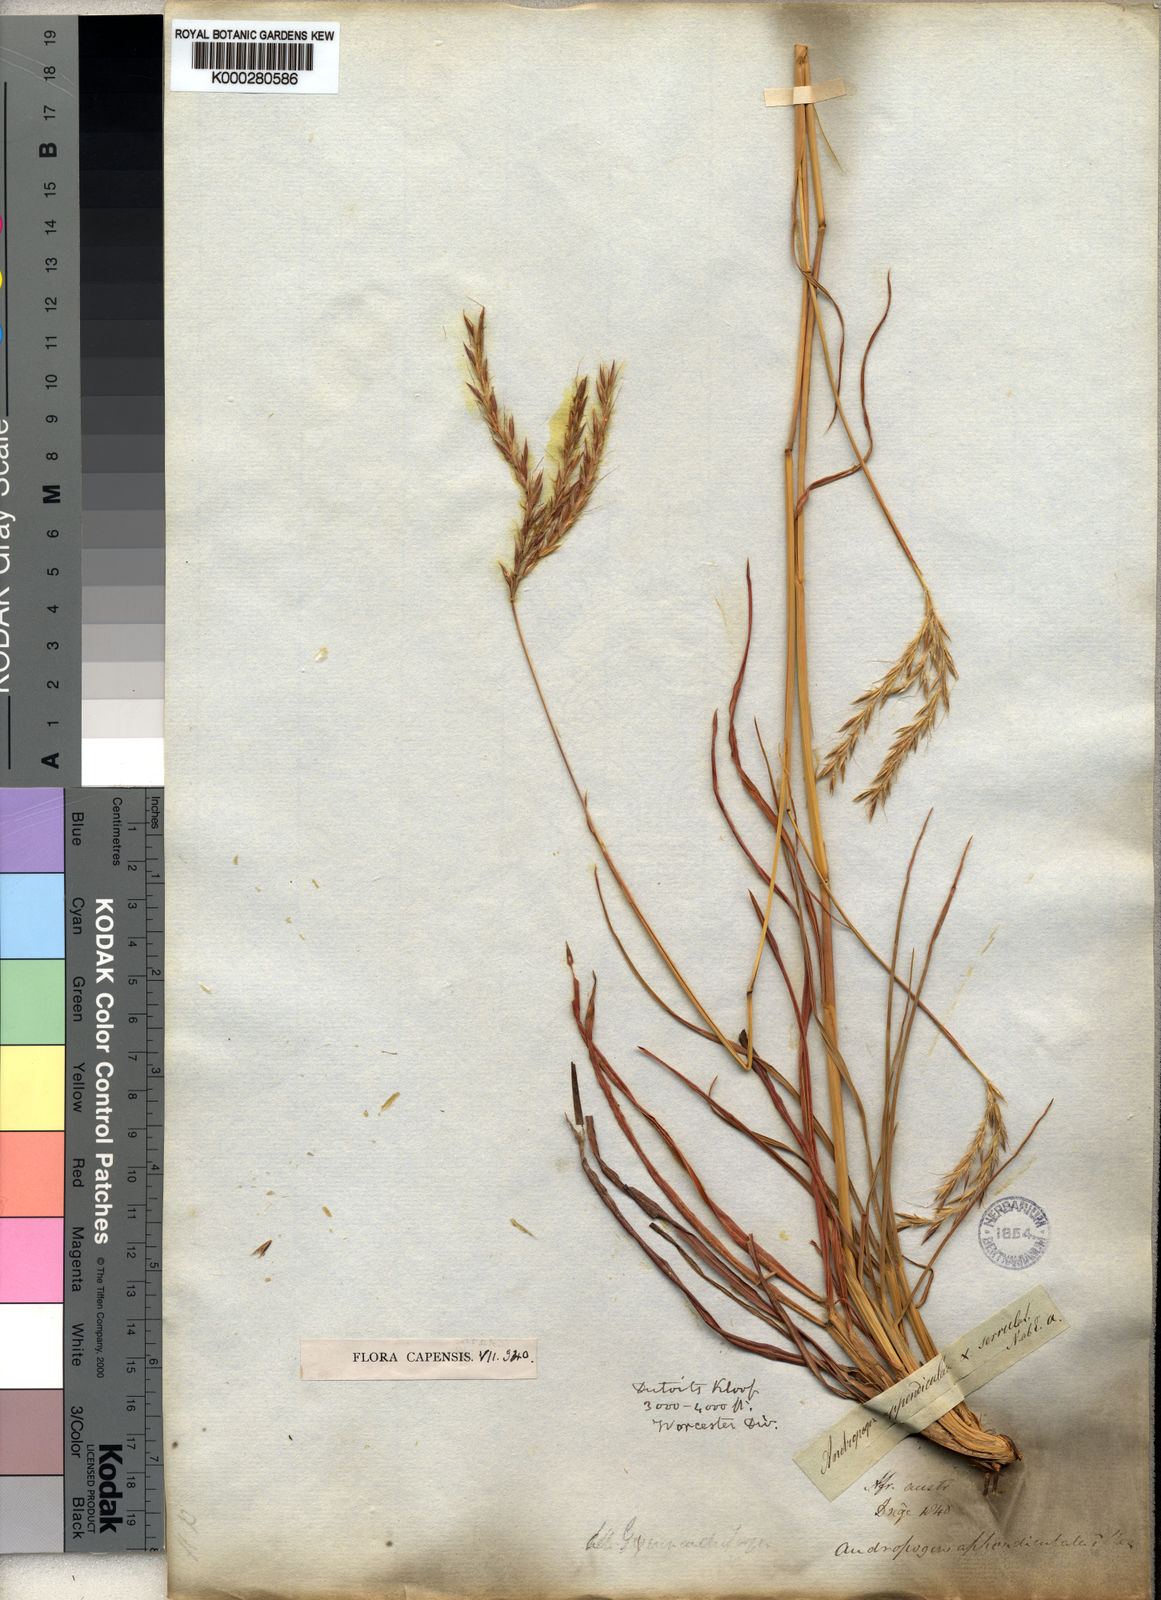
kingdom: Plantae
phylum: Tracheophyta
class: Liliopsida
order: Poales
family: Poaceae
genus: Andropogon
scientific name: Andropogon appendiculatus
